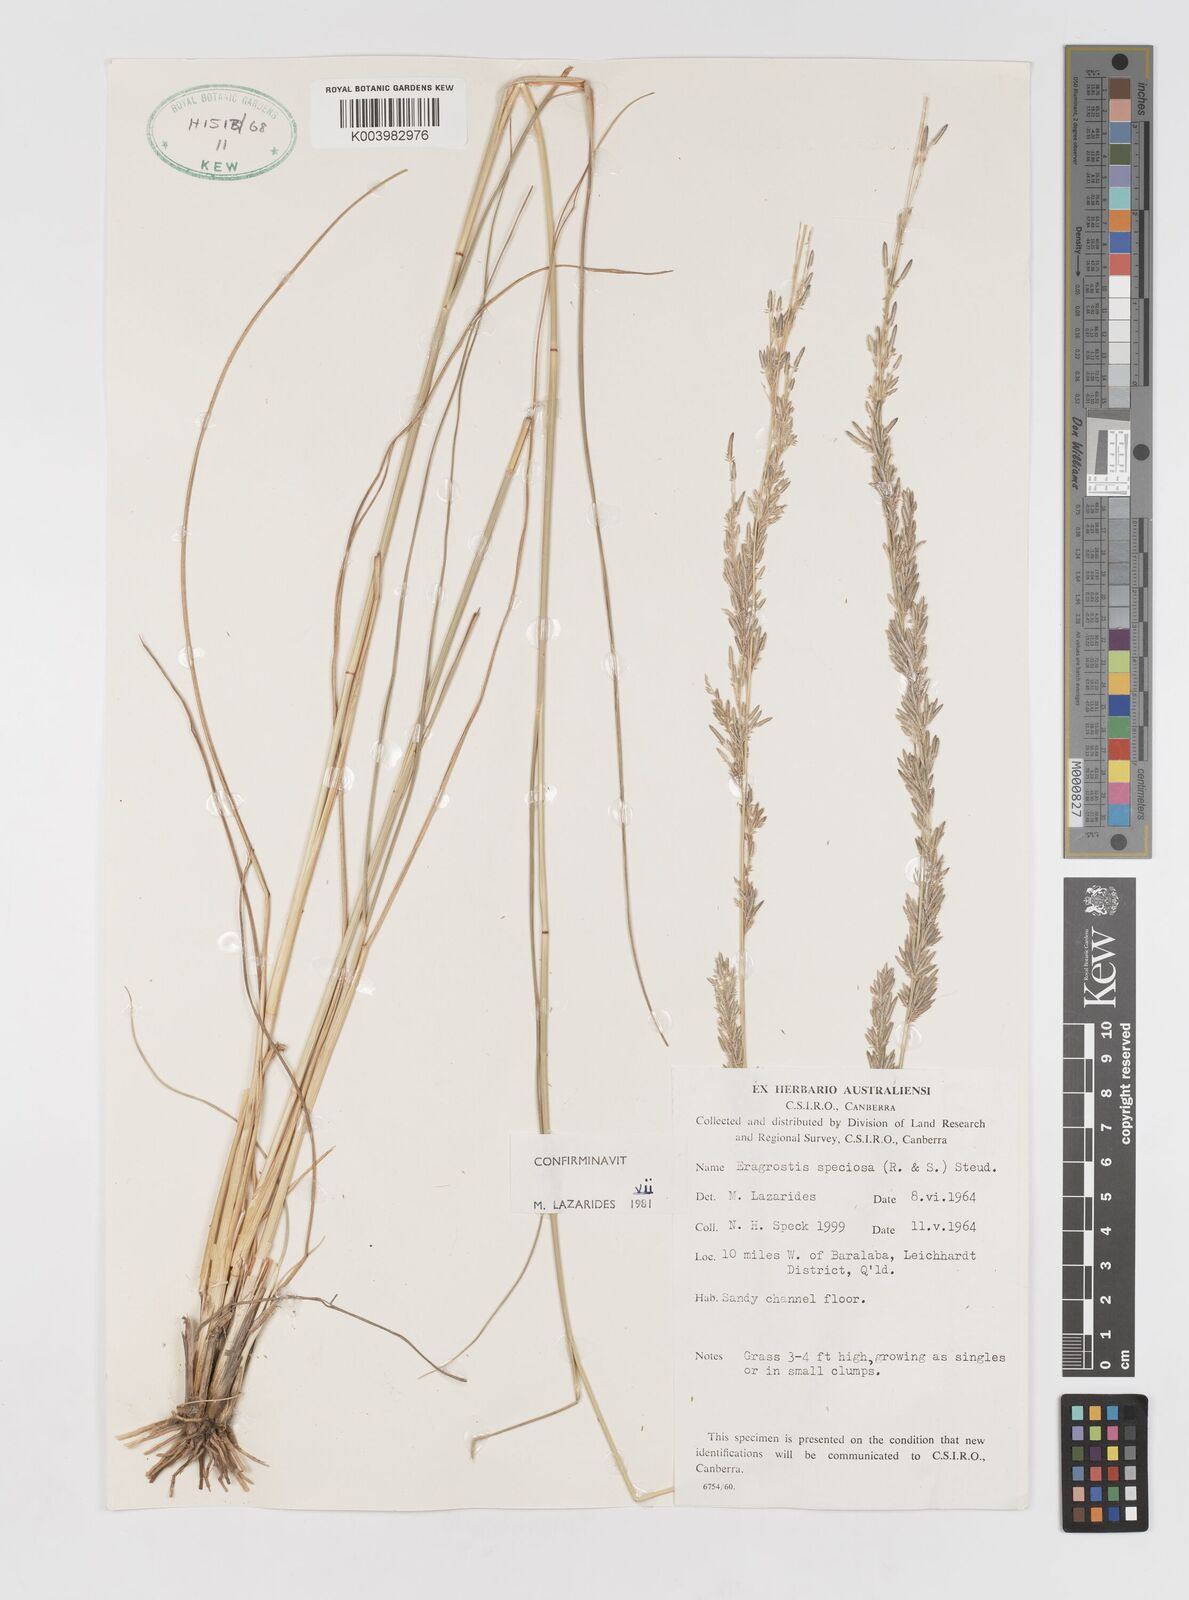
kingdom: Plantae
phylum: Tracheophyta
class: Liliopsida
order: Poales
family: Poaceae
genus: Eragrostis
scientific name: Eragrostis speciosa
